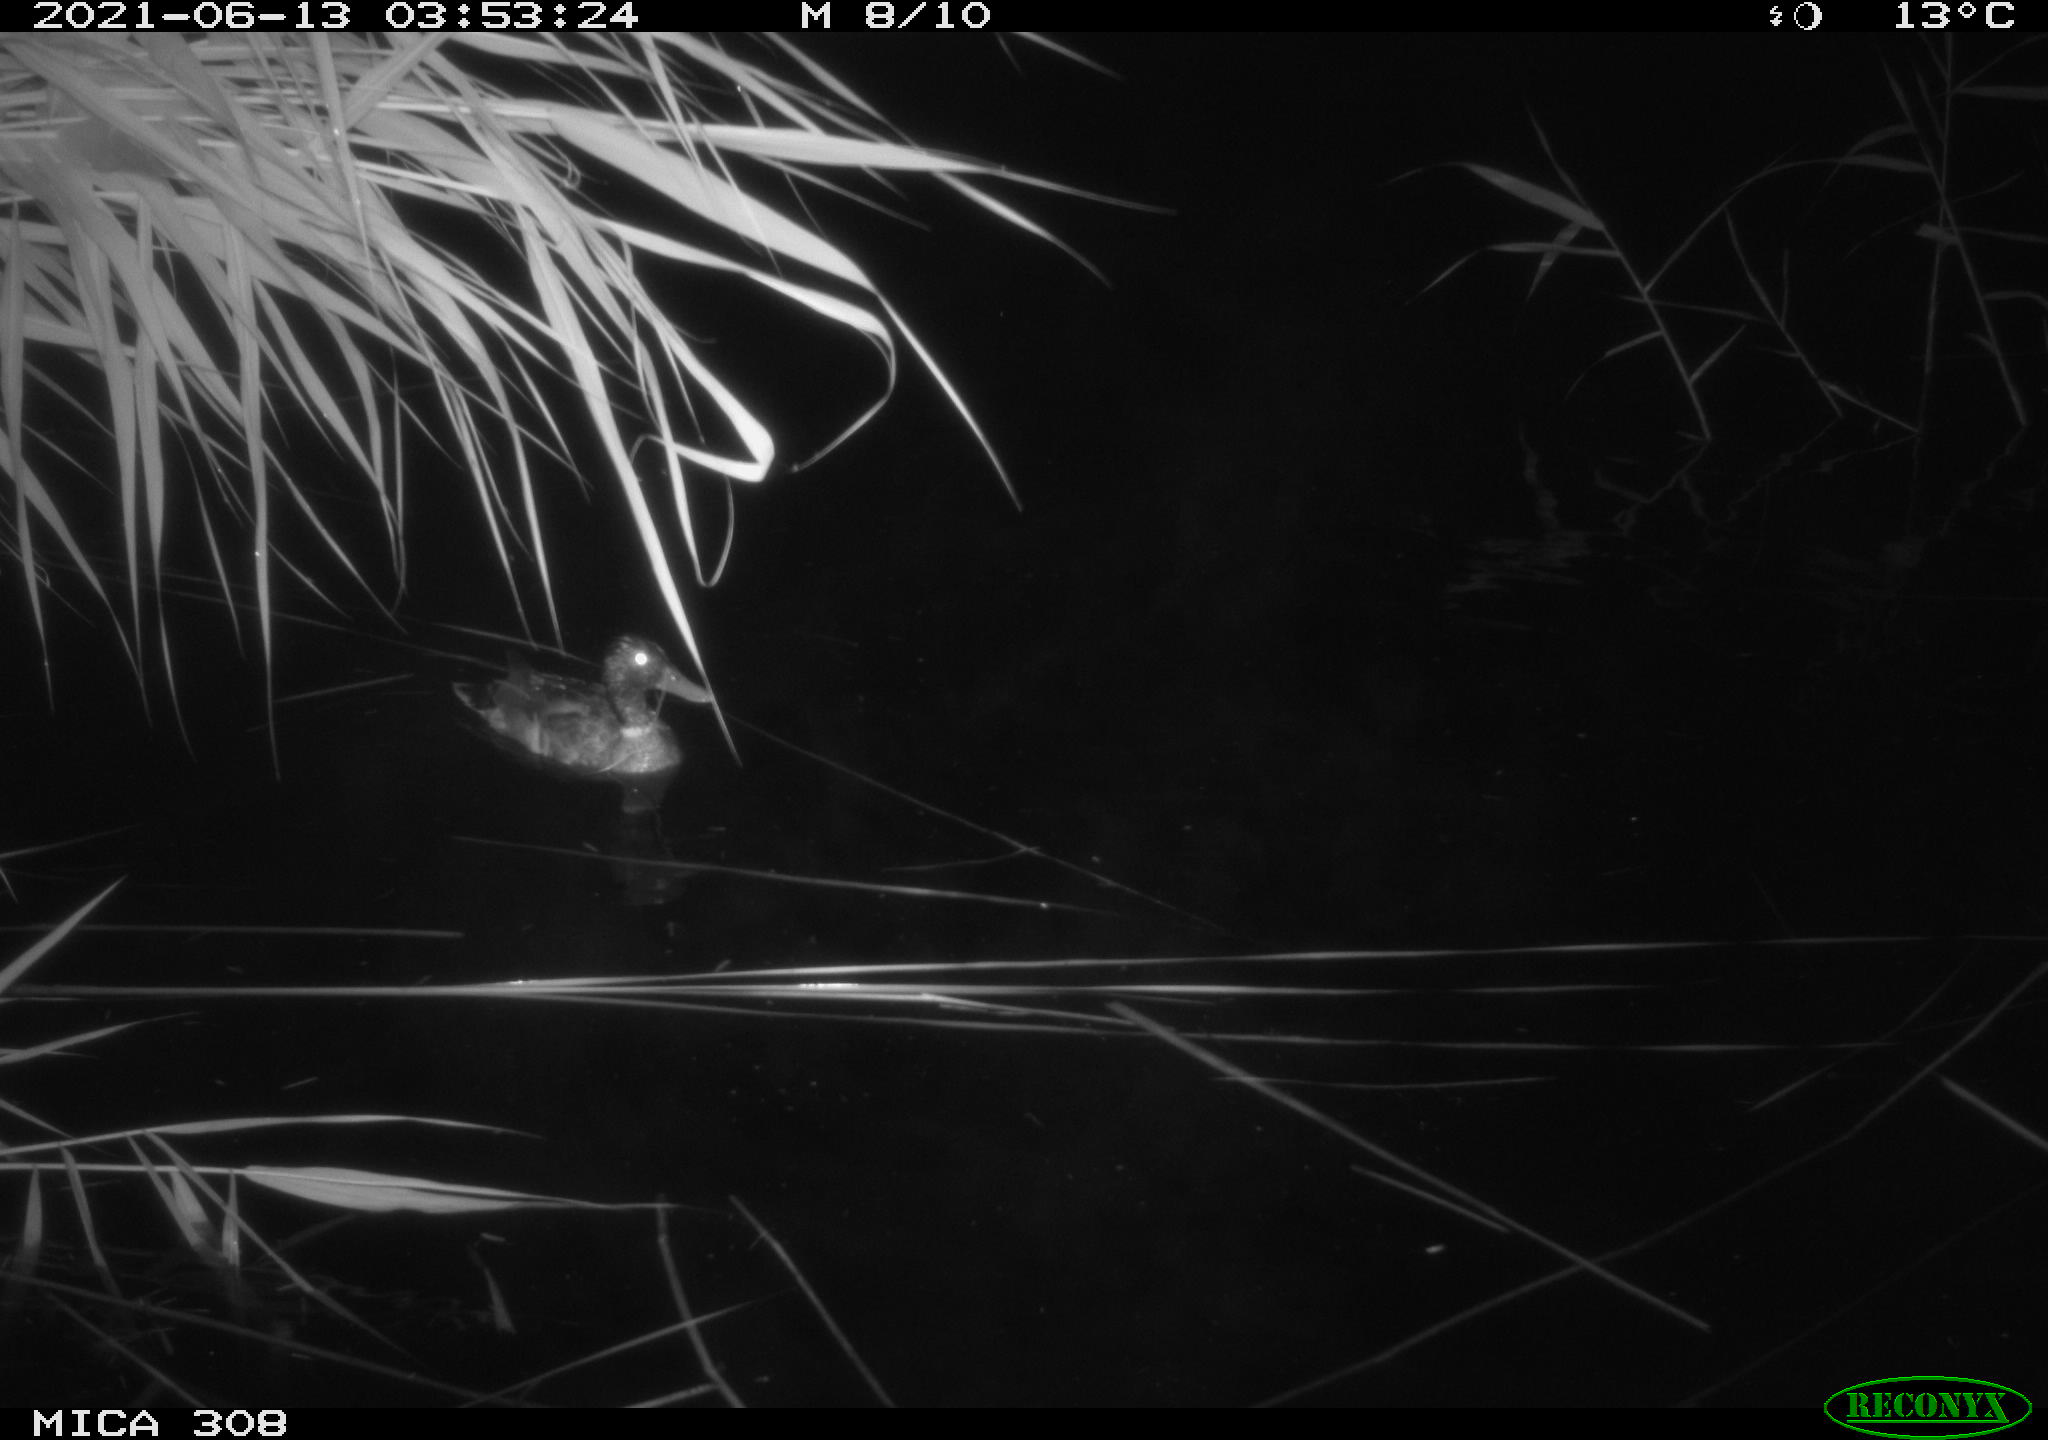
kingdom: Animalia
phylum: Chordata
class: Aves
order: Anseriformes
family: Anatidae
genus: Anas
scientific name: Anas platyrhynchos
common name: Mallard
